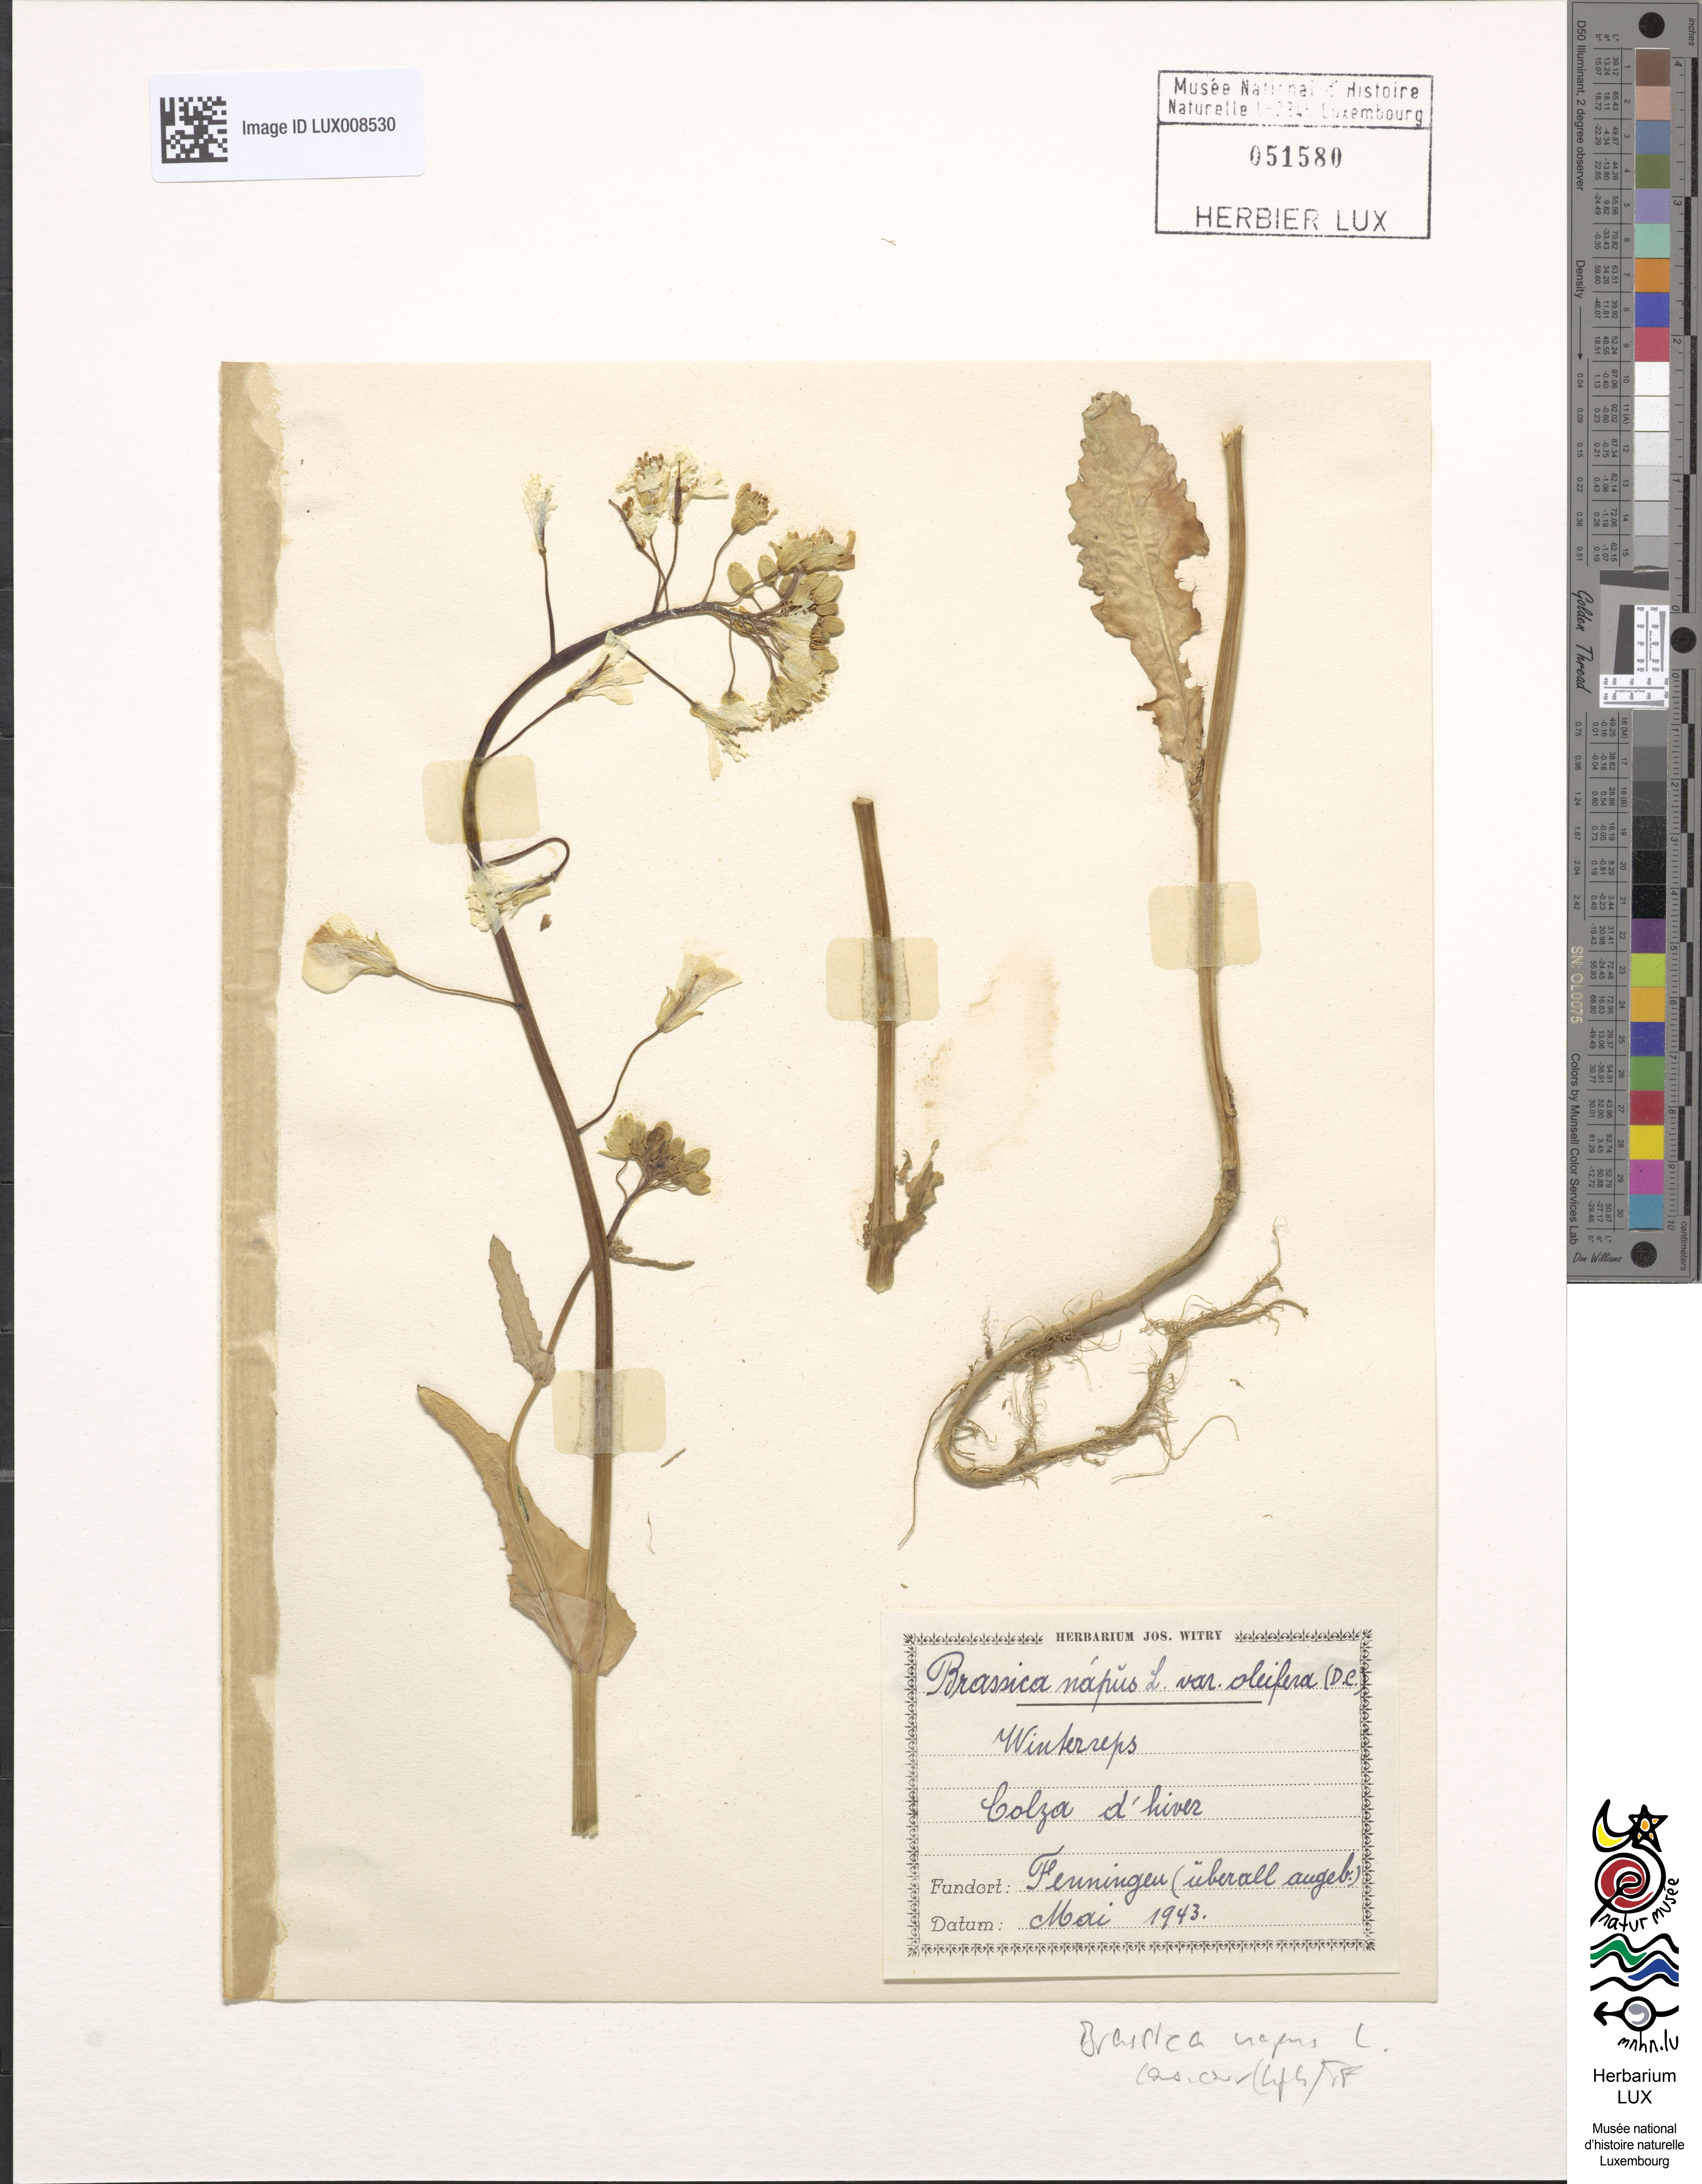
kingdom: Plantae
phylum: Tracheophyta
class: Magnoliopsida
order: Brassicales
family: Brassicaceae
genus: Brassica
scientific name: Brassica napus
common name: Rape
